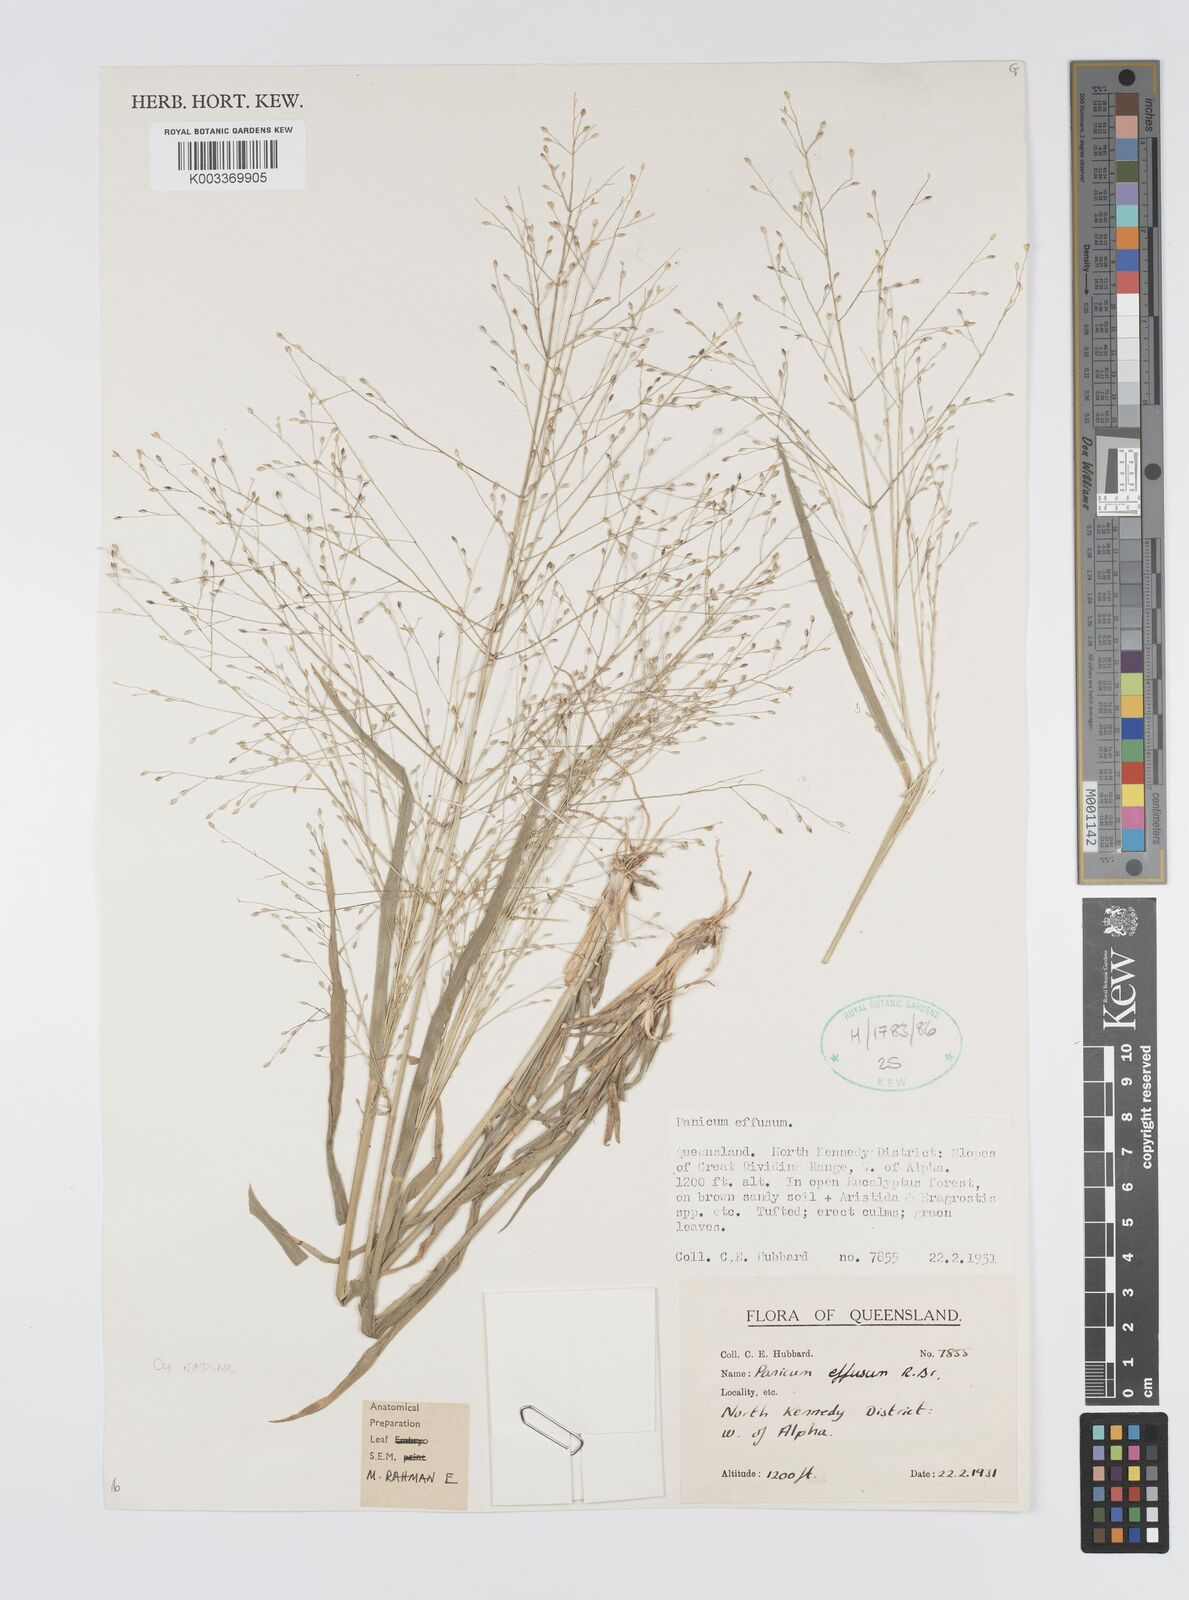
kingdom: Plantae
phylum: Tracheophyta
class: Liliopsida
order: Poales
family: Poaceae
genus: Panicum
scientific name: Panicum effusum
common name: Hairy panic grass
